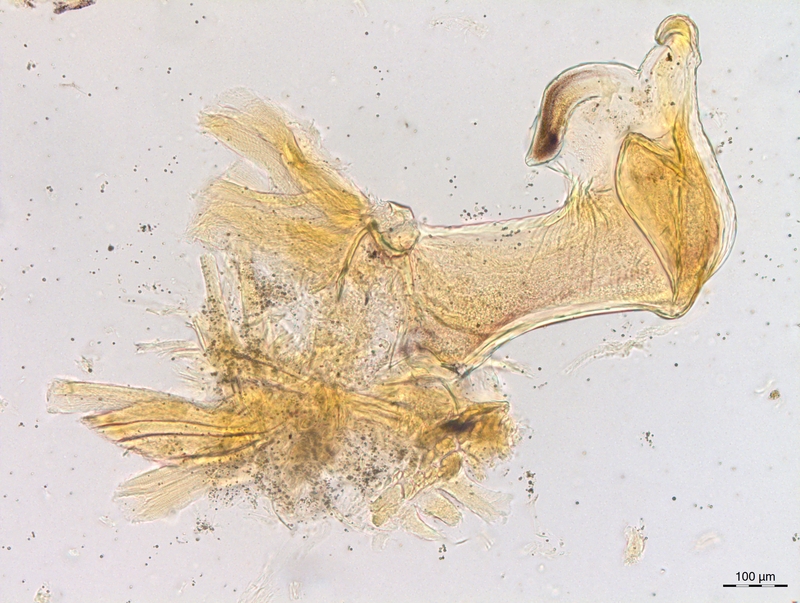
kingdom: Animalia
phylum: Arthropoda
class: Diplopoda
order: Chordeumatida
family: Craspedosomatidae
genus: Craspedosoma
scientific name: Craspedosoma slavum
